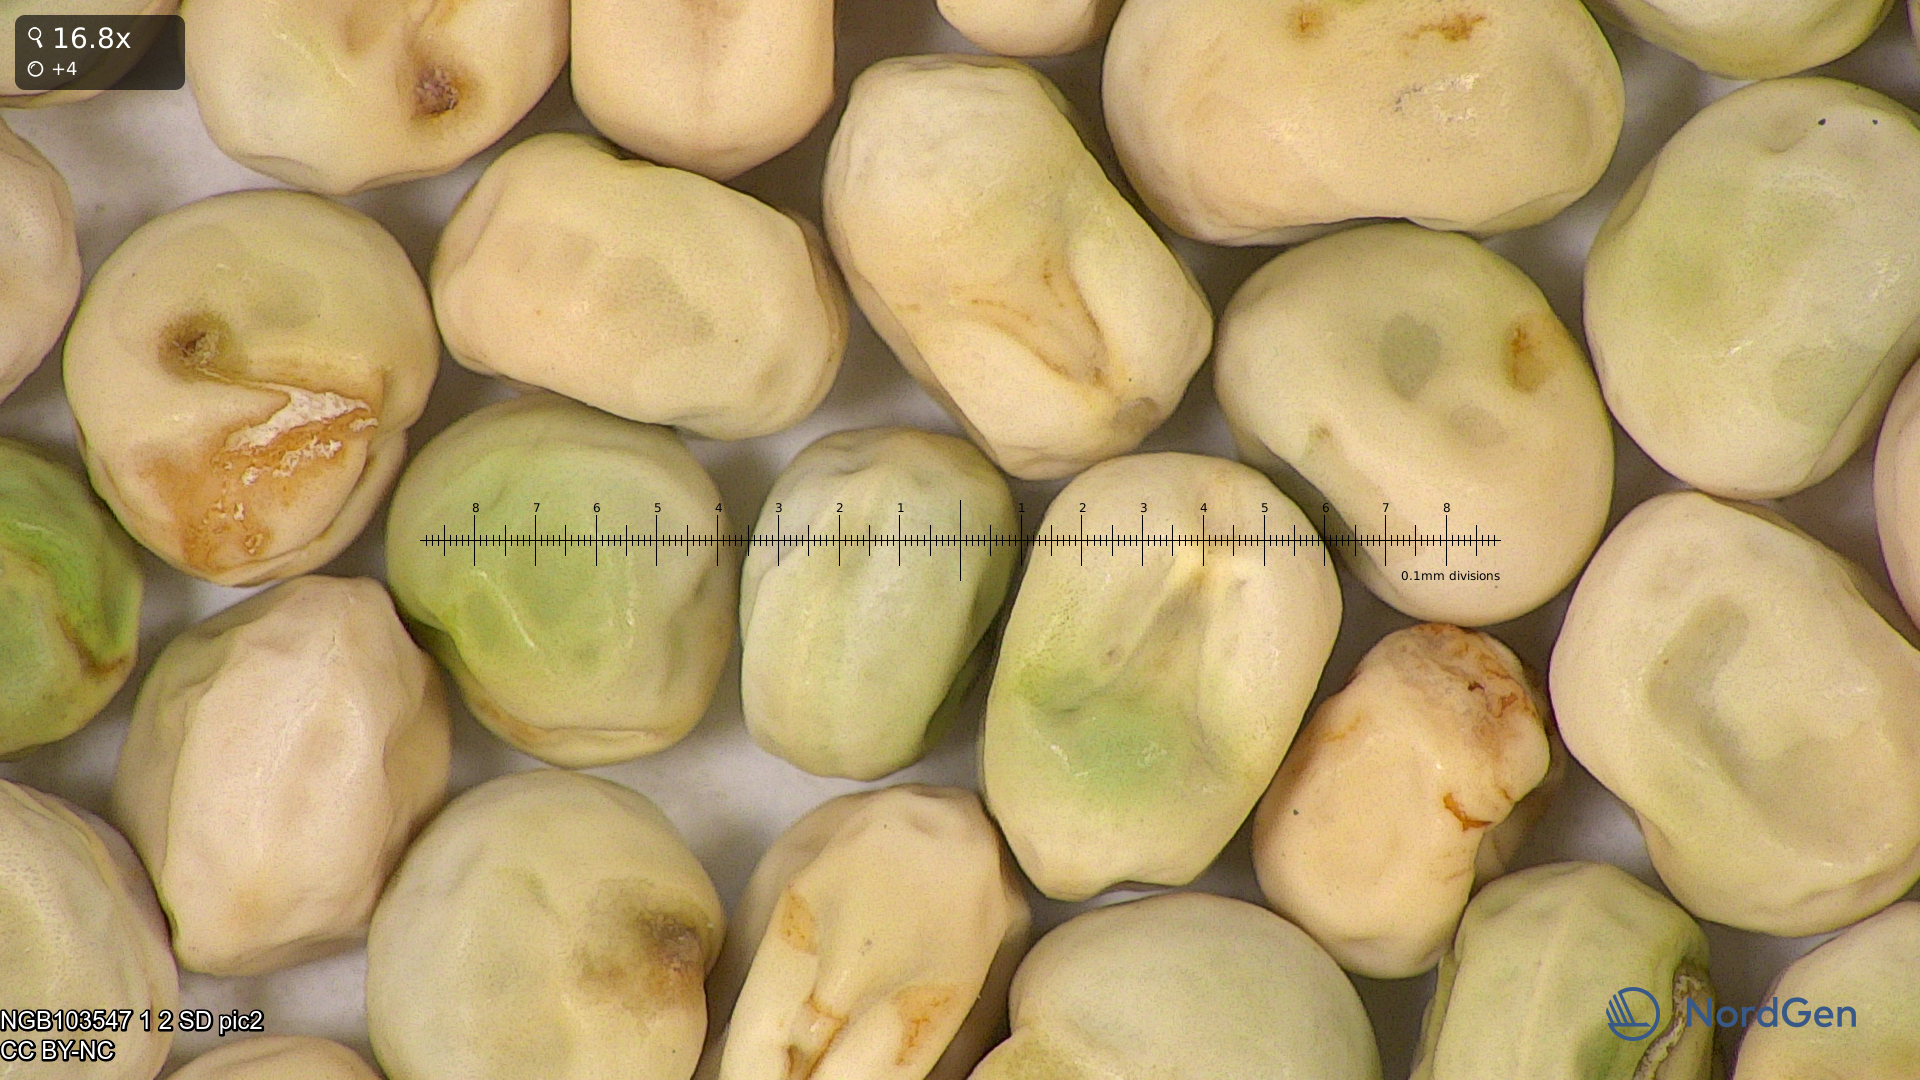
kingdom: Plantae
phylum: Tracheophyta
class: Magnoliopsida
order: Fabales
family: Fabaceae
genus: Lathyrus
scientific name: Lathyrus oleraceus
